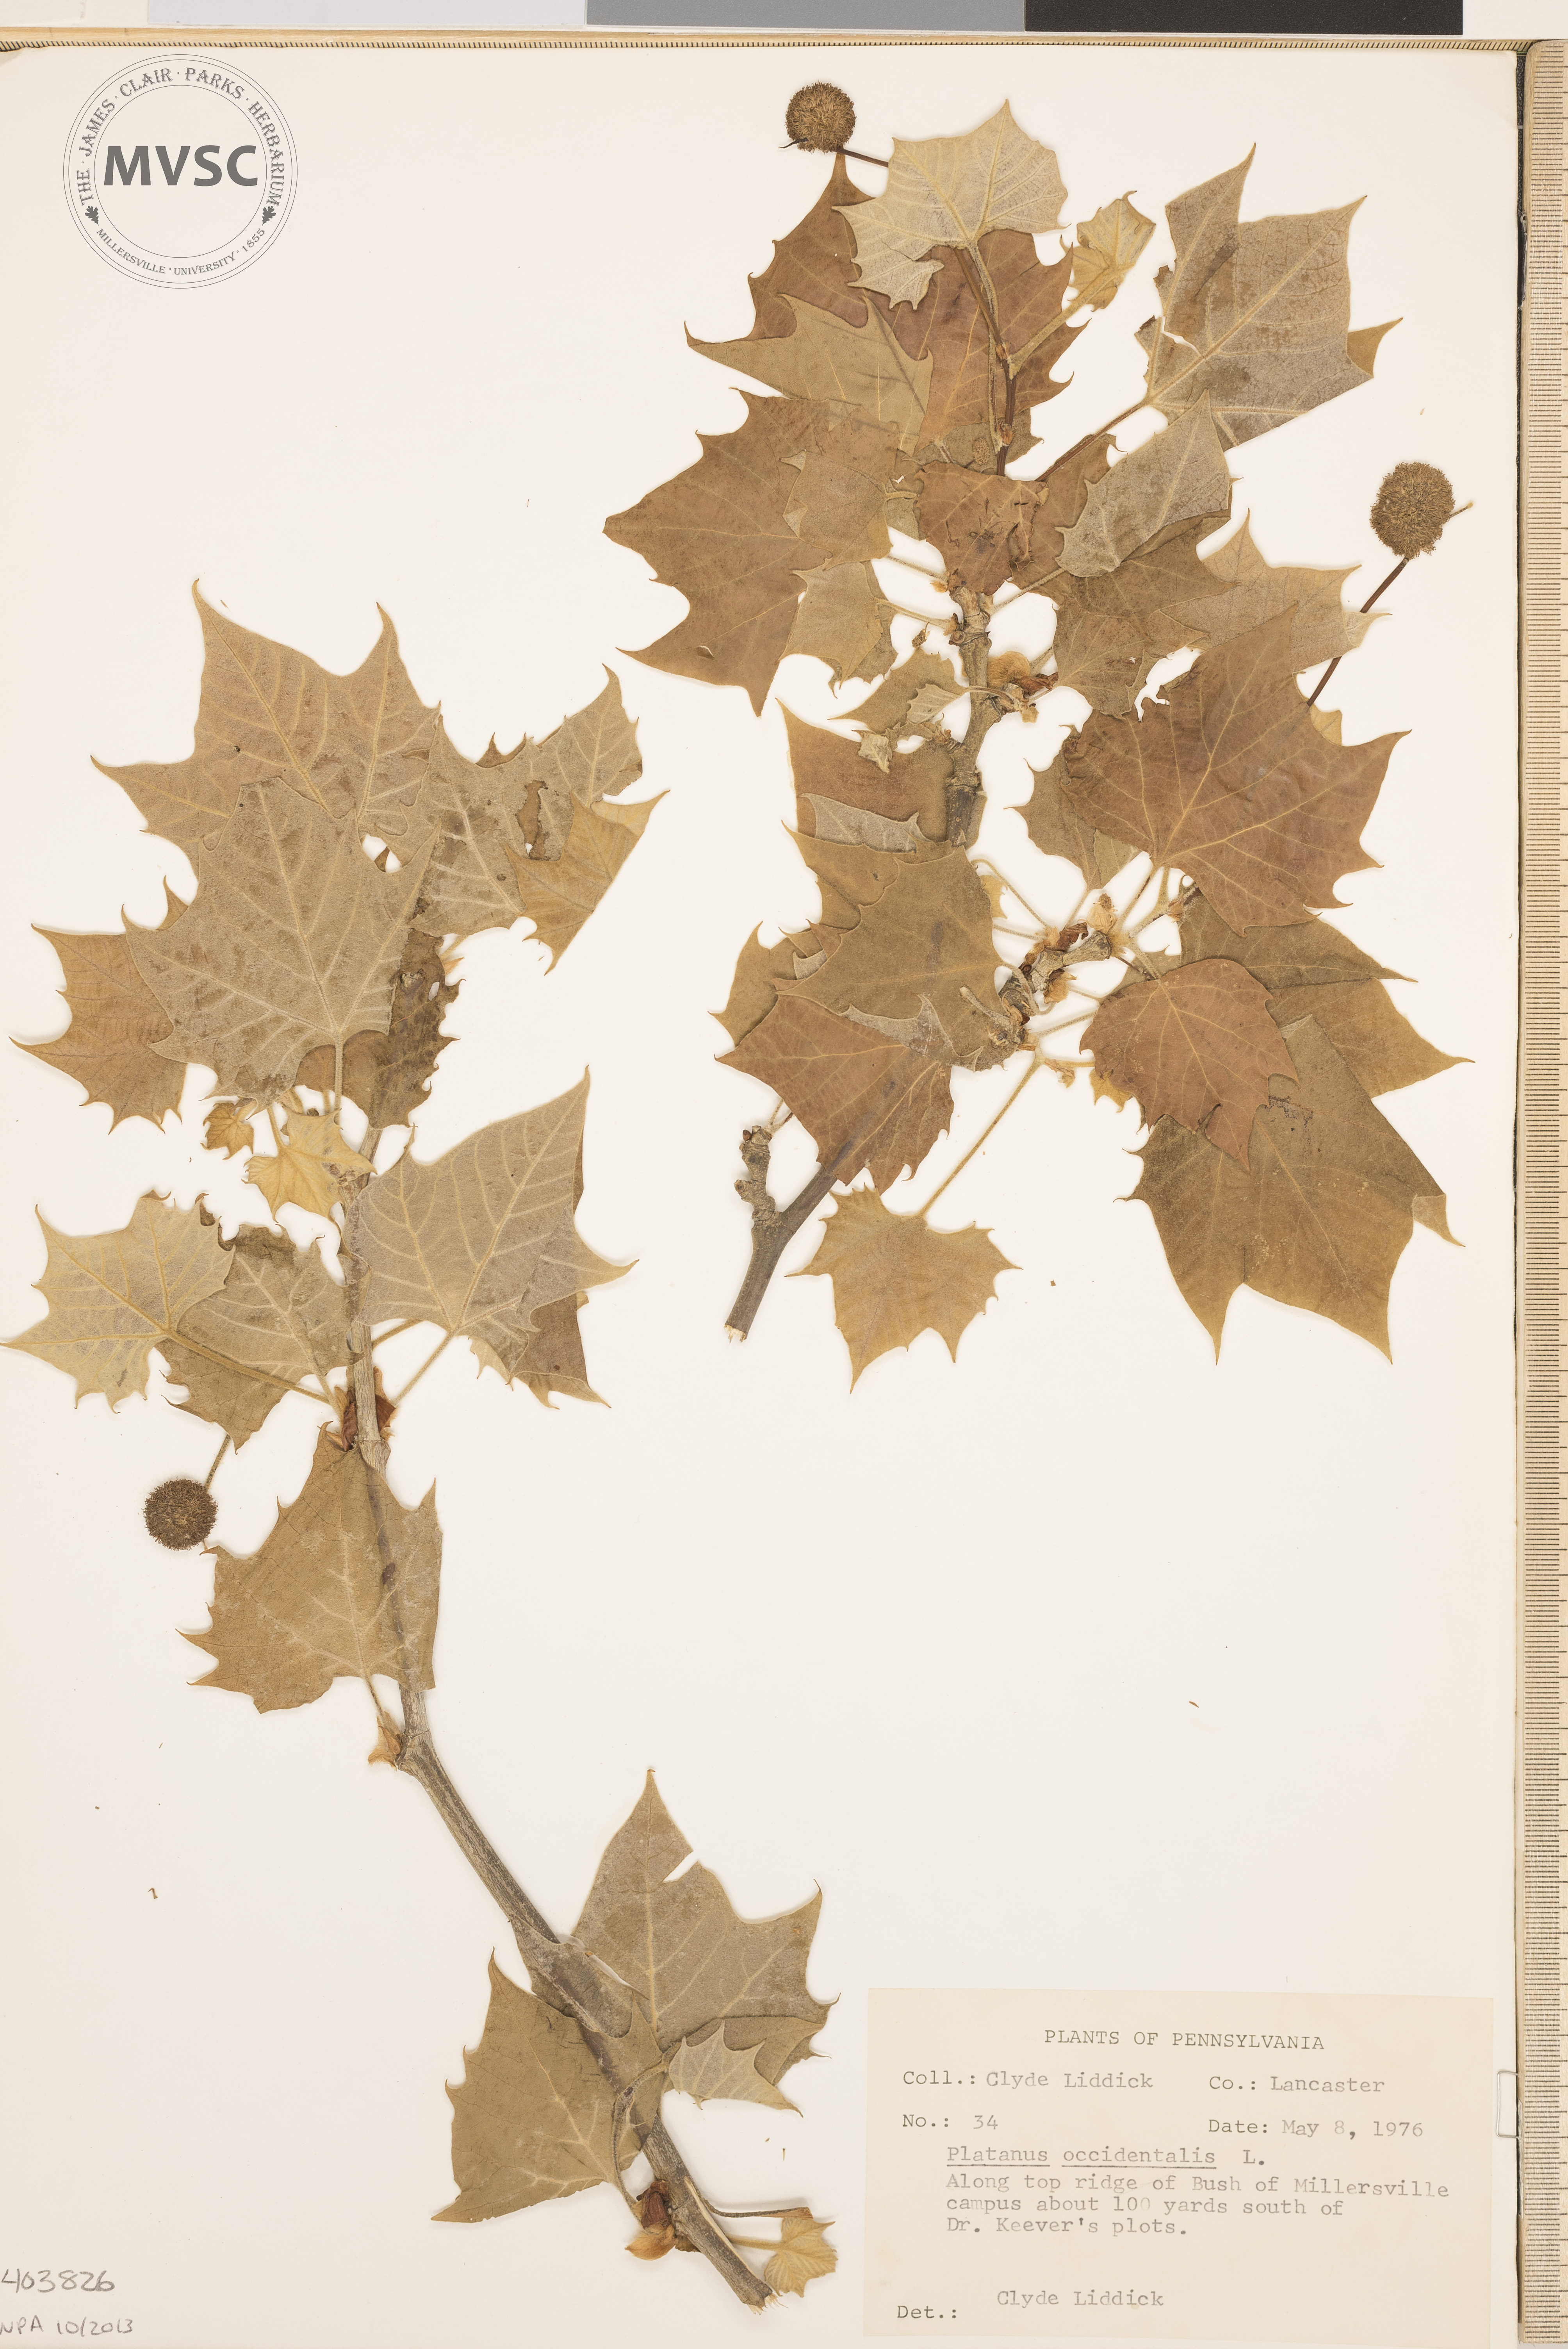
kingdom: Plantae
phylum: Tracheophyta
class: Magnoliopsida
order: Proteales
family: Platanaceae
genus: Platanus
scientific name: Platanus occidentalis
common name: American sycamore
